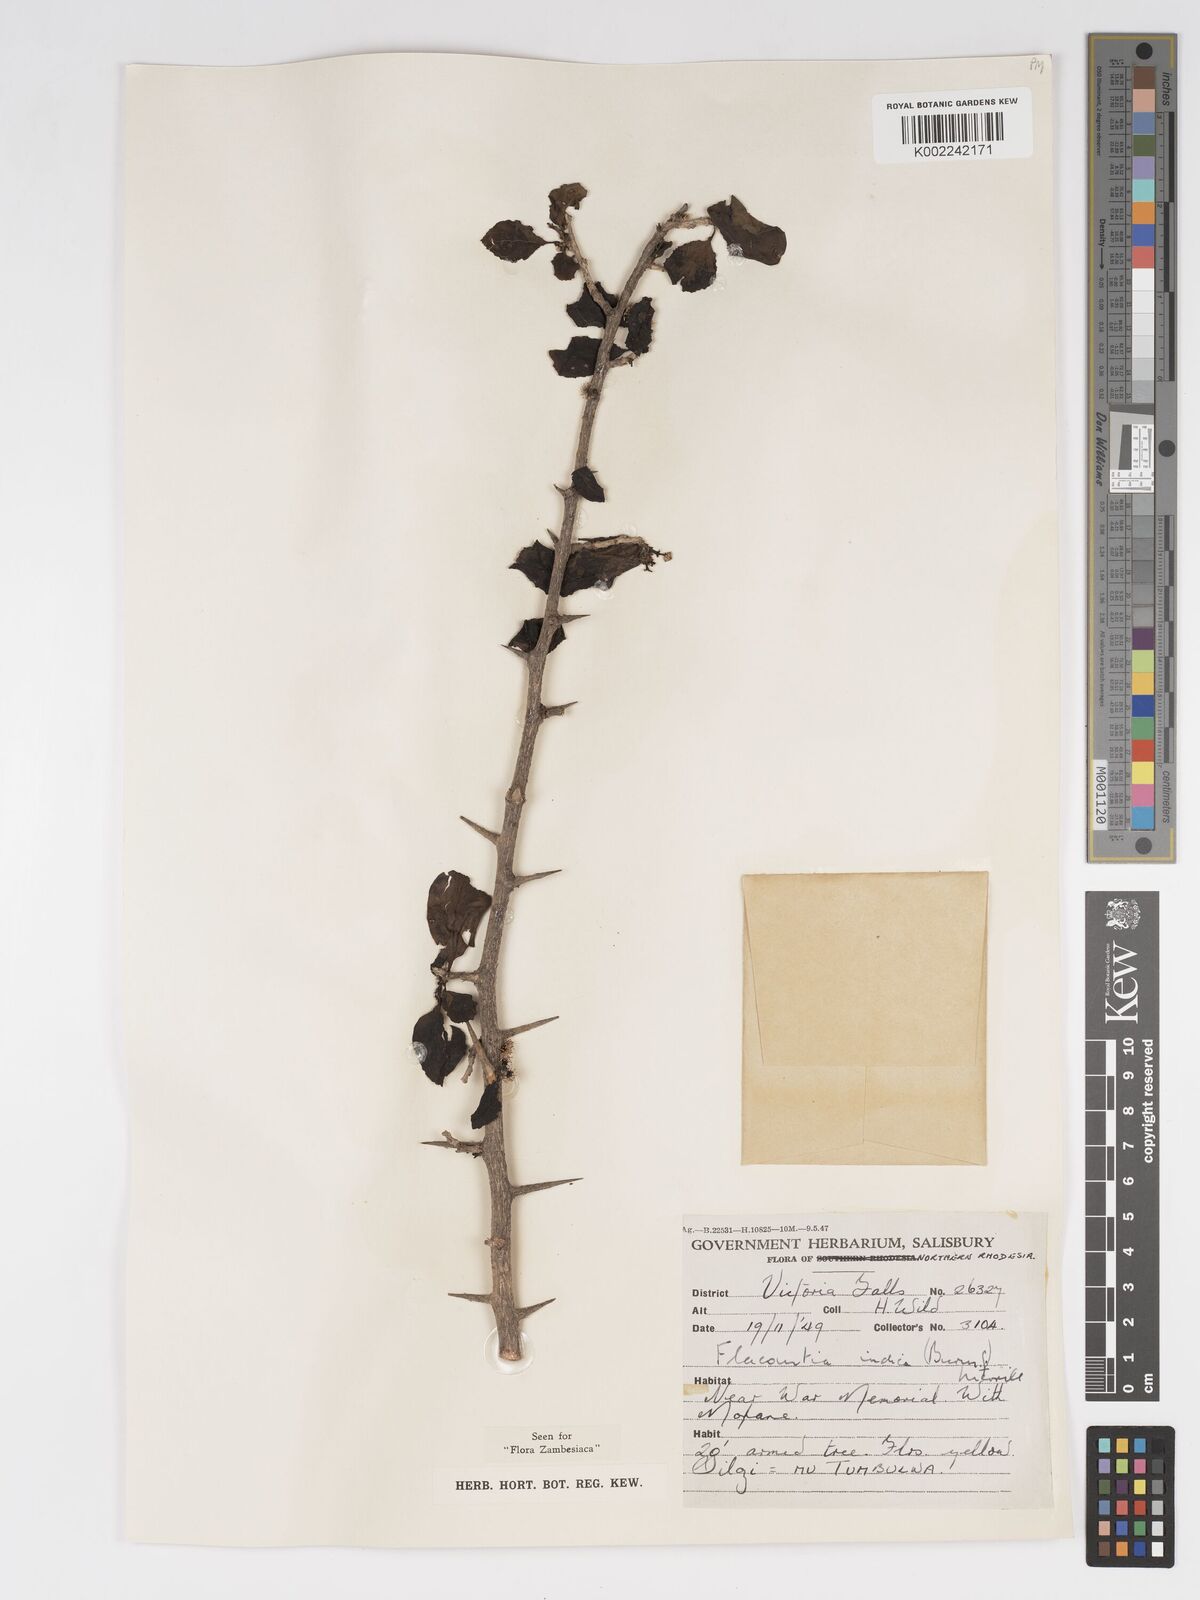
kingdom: Plantae
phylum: Tracheophyta
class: Magnoliopsida
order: Malpighiales
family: Salicaceae
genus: Flacourtia
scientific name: Flacourtia indica
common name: Governor's plum
